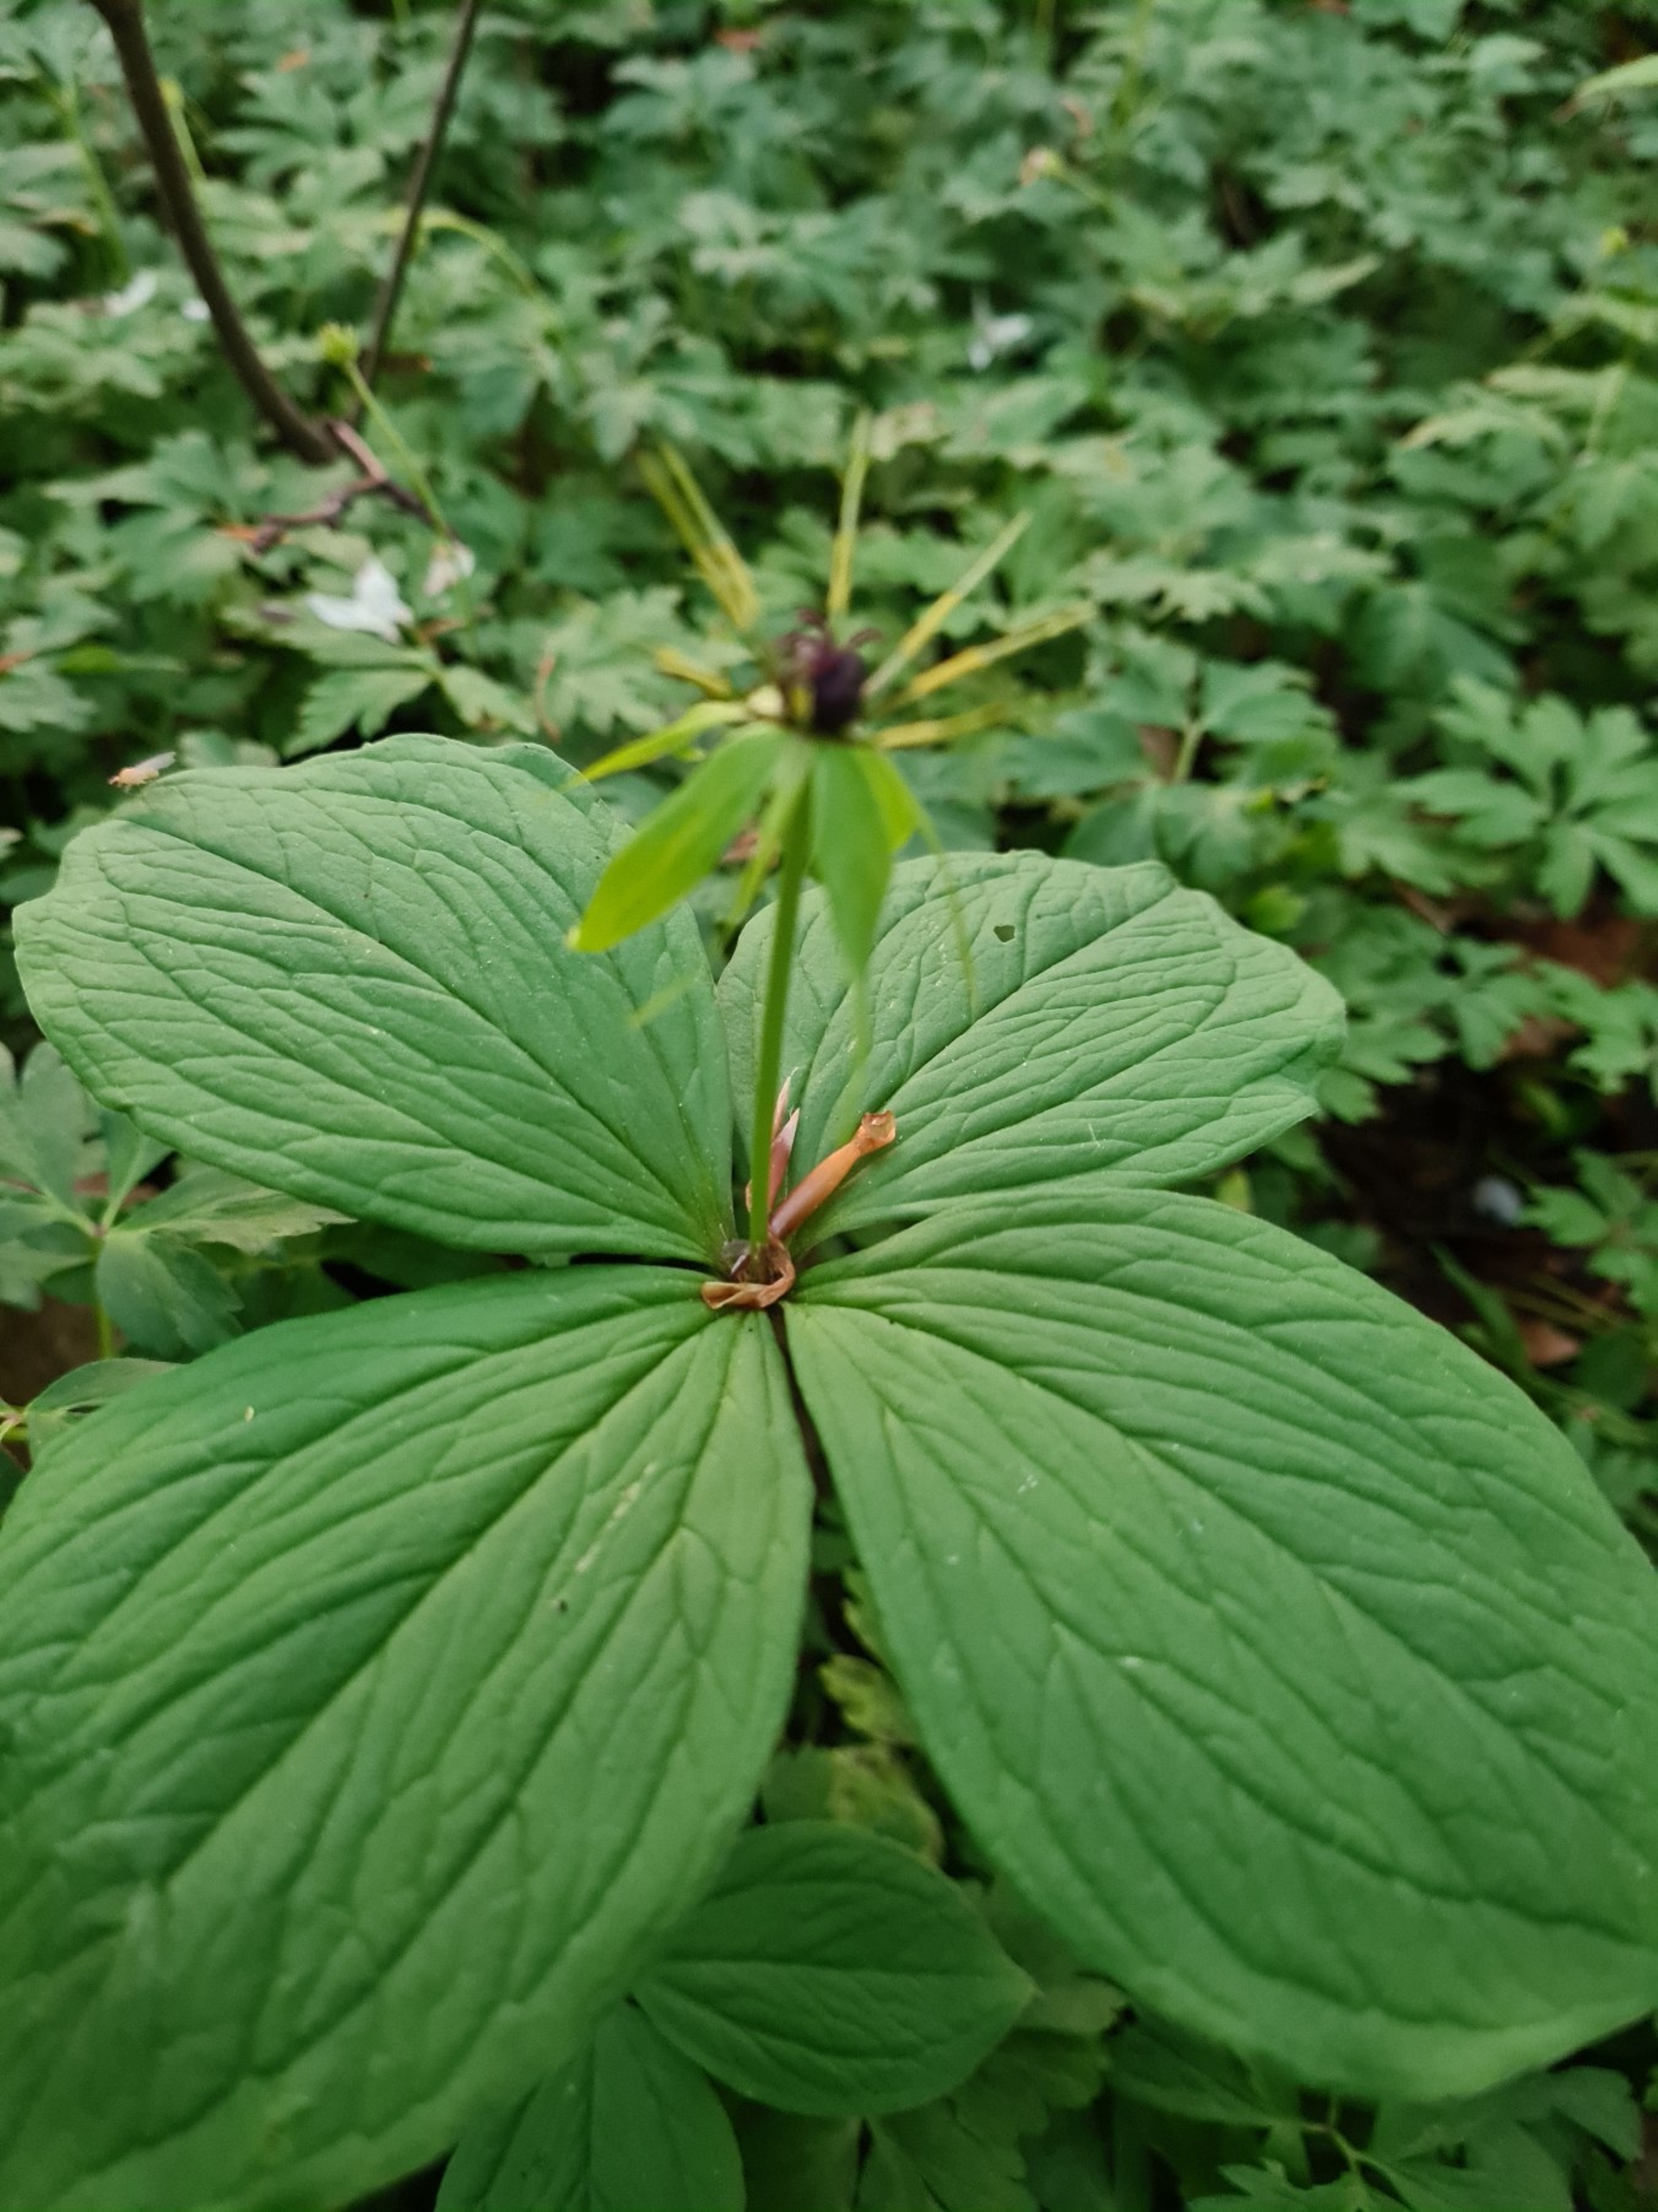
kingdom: Plantae
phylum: Tracheophyta
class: Liliopsida
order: Liliales
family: Melanthiaceae
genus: Paris
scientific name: Paris quadrifolia
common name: Firblad
